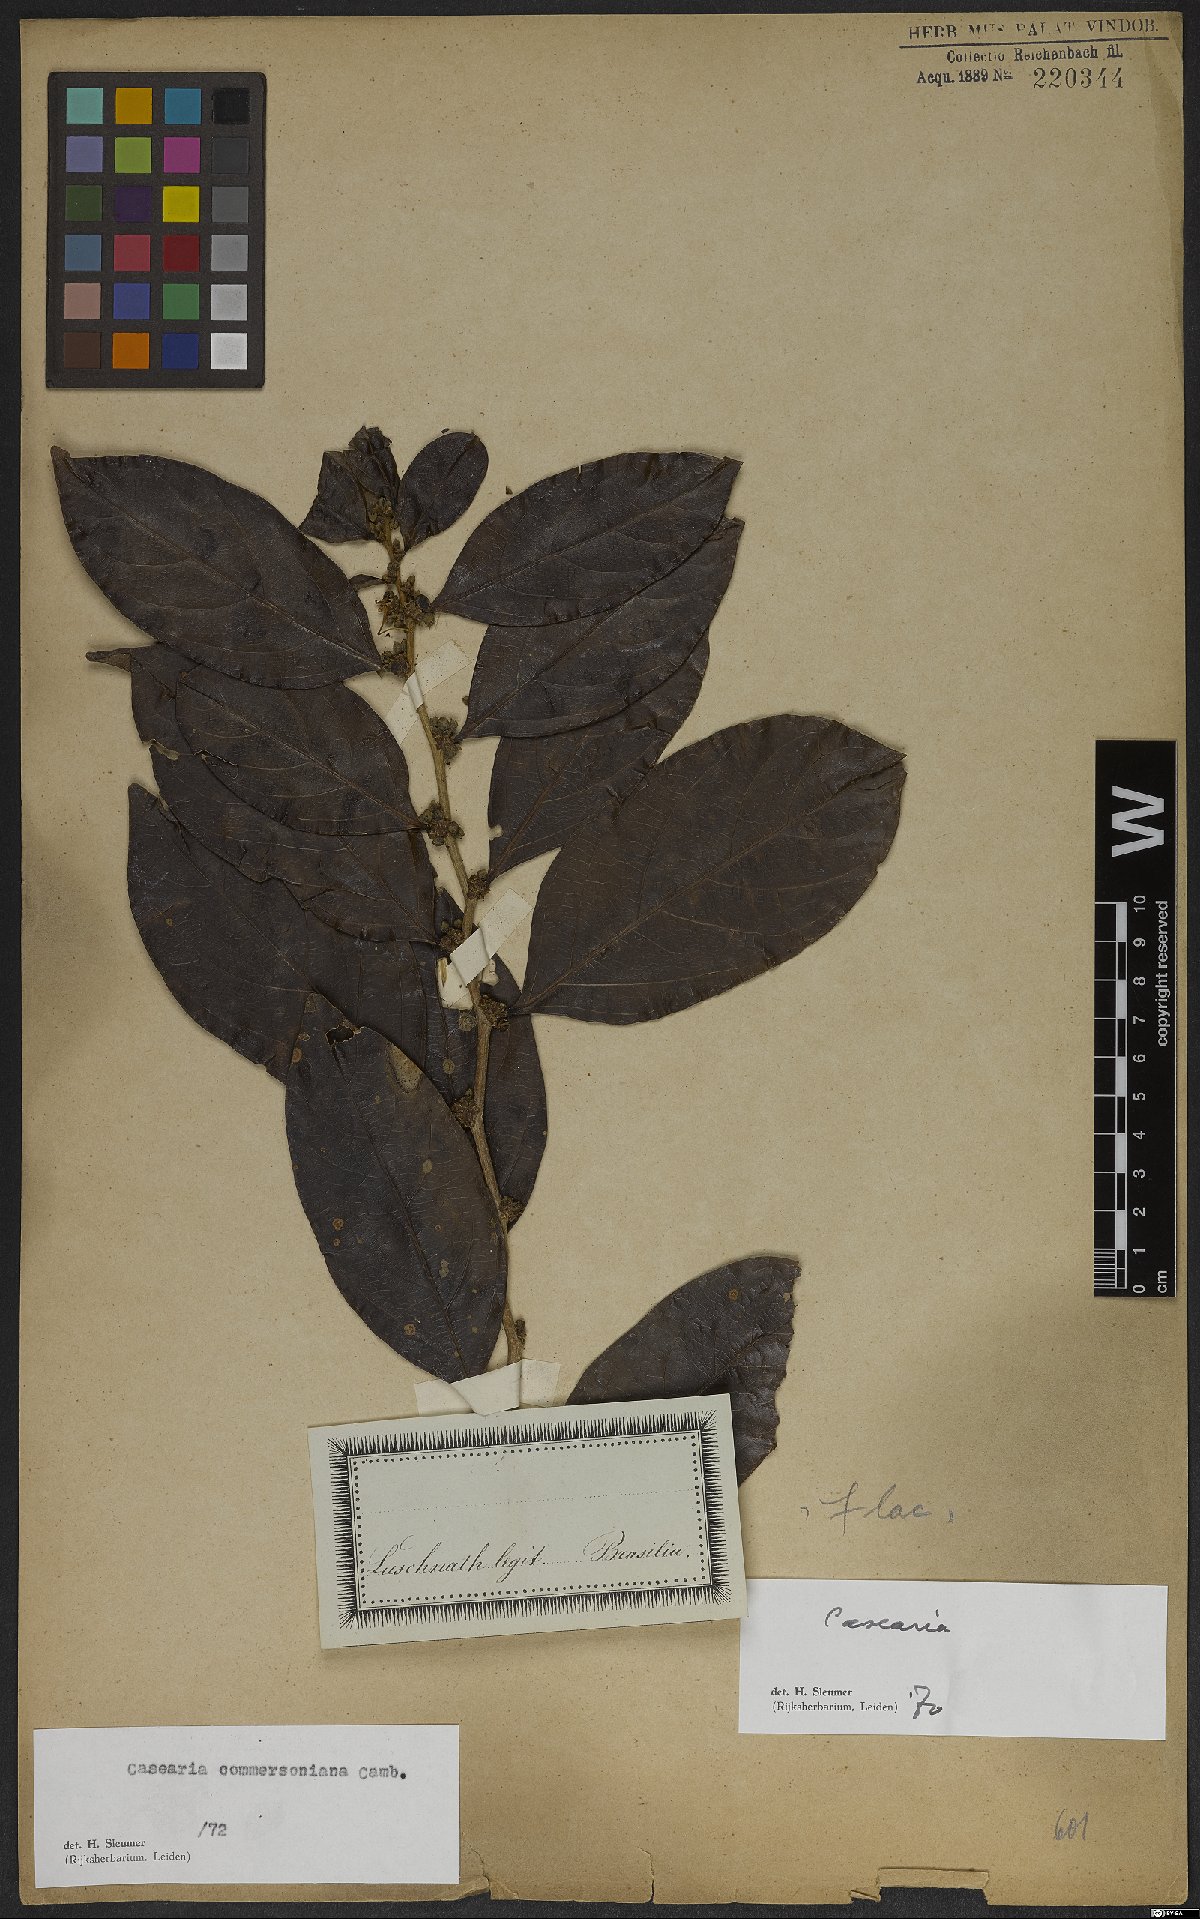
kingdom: Plantae
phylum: Tracheophyta
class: Magnoliopsida
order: Malpighiales
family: Salicaceae
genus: Piparea
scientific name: Piparea dentata
